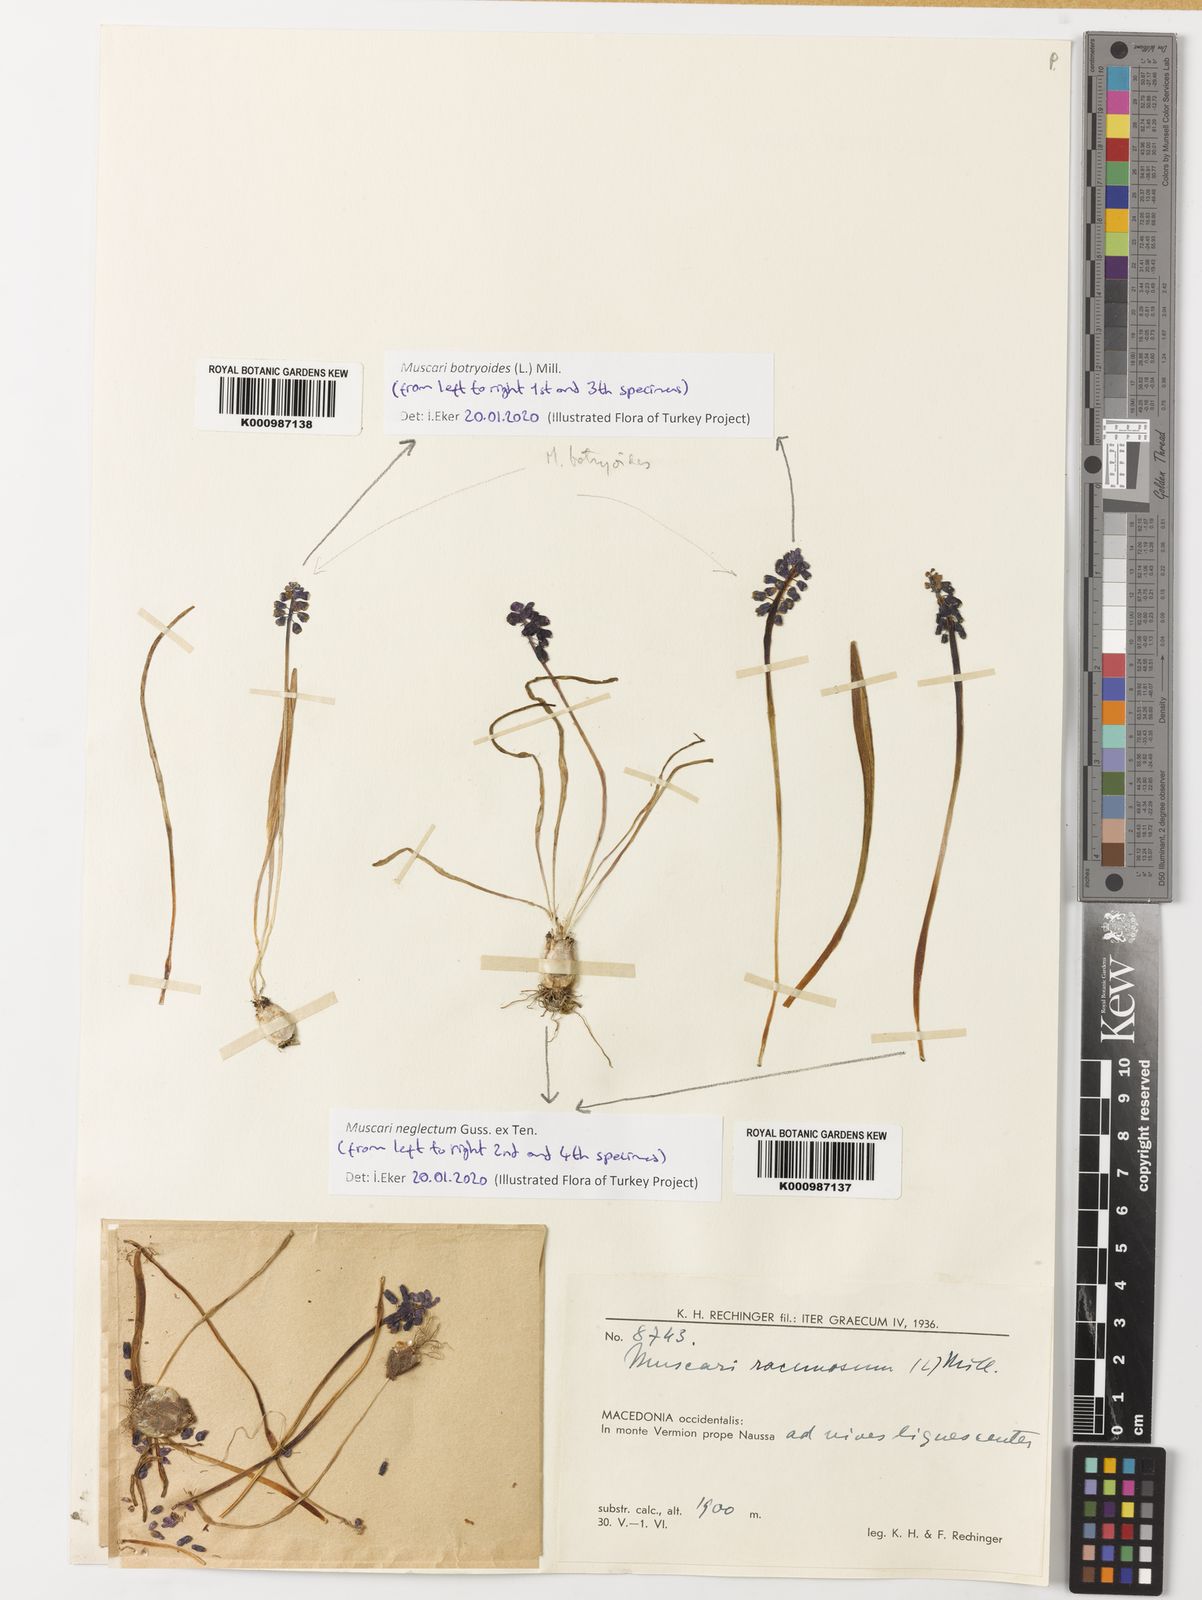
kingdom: Plantae
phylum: Tracheophyta
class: Liliopsida
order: Asparagales
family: Asparagaceae
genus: Muscari
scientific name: Muscari botryoides
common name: Compact grape-hyacinth
